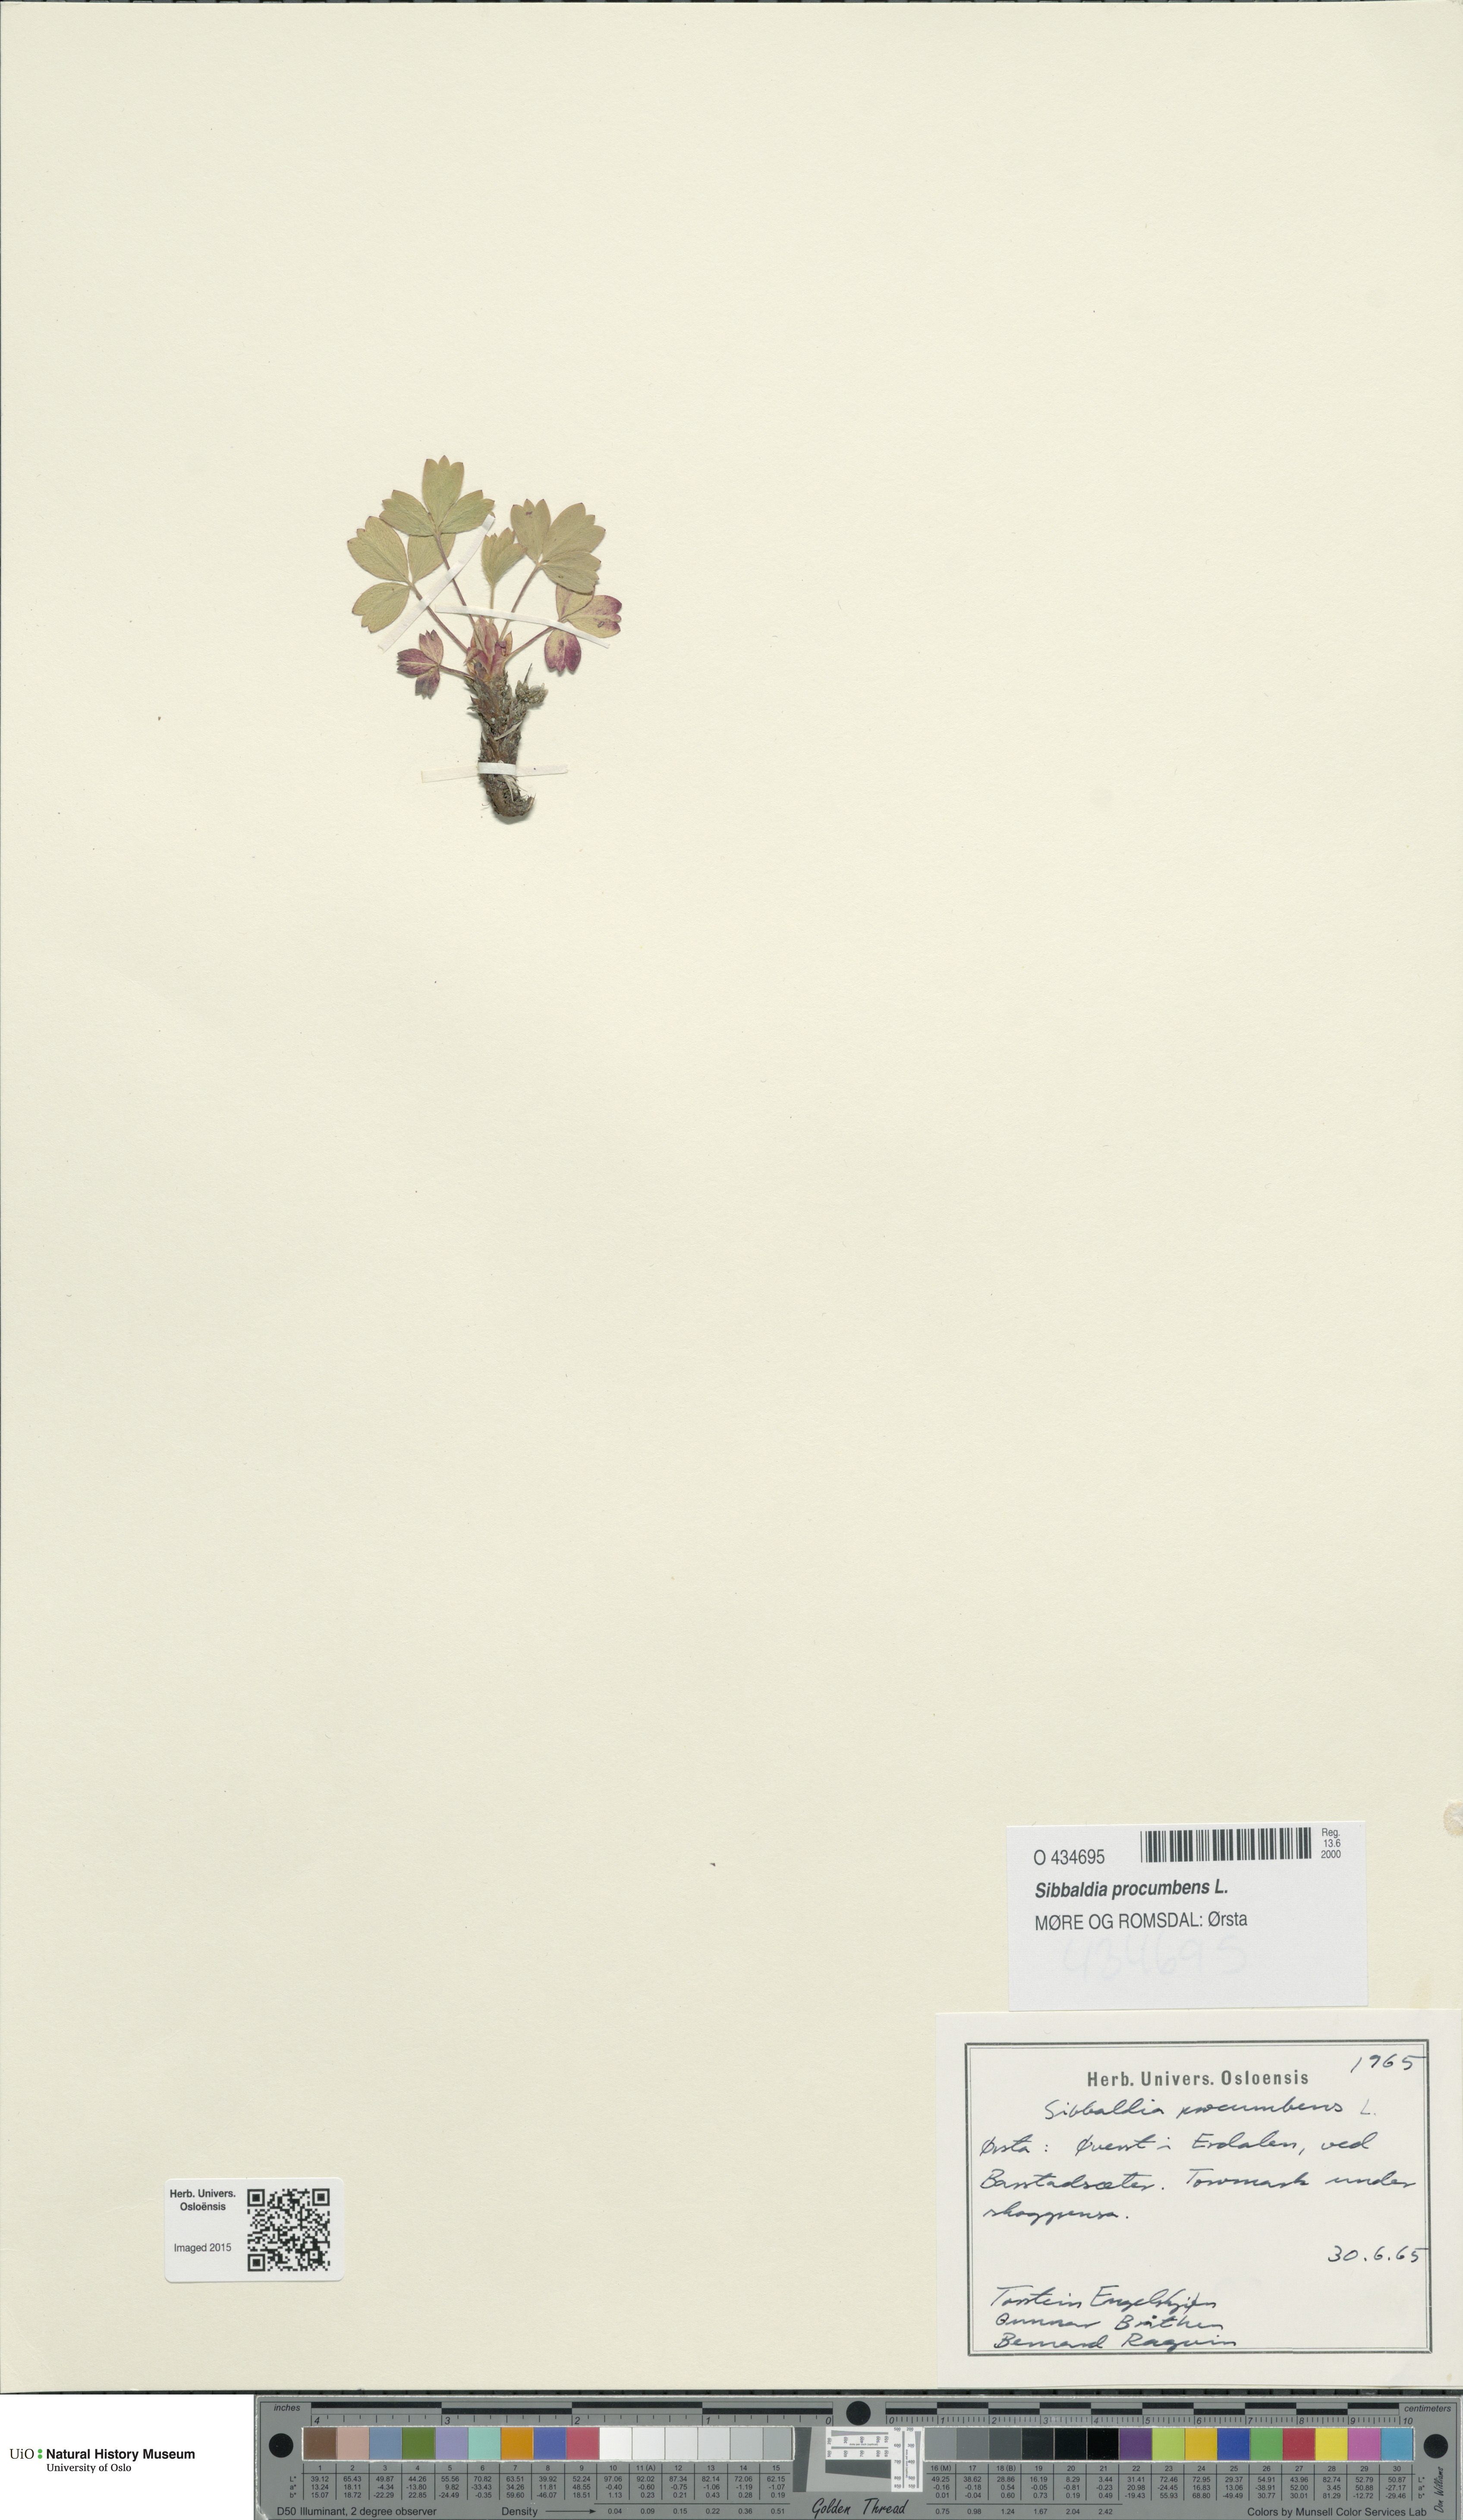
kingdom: Plantae
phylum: Tracheophyta
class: Magnoliopsida
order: Rosales
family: Rosaceae
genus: Sibbaldia
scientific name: Sibbaldia procumbens
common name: Creeping sibbaldia
